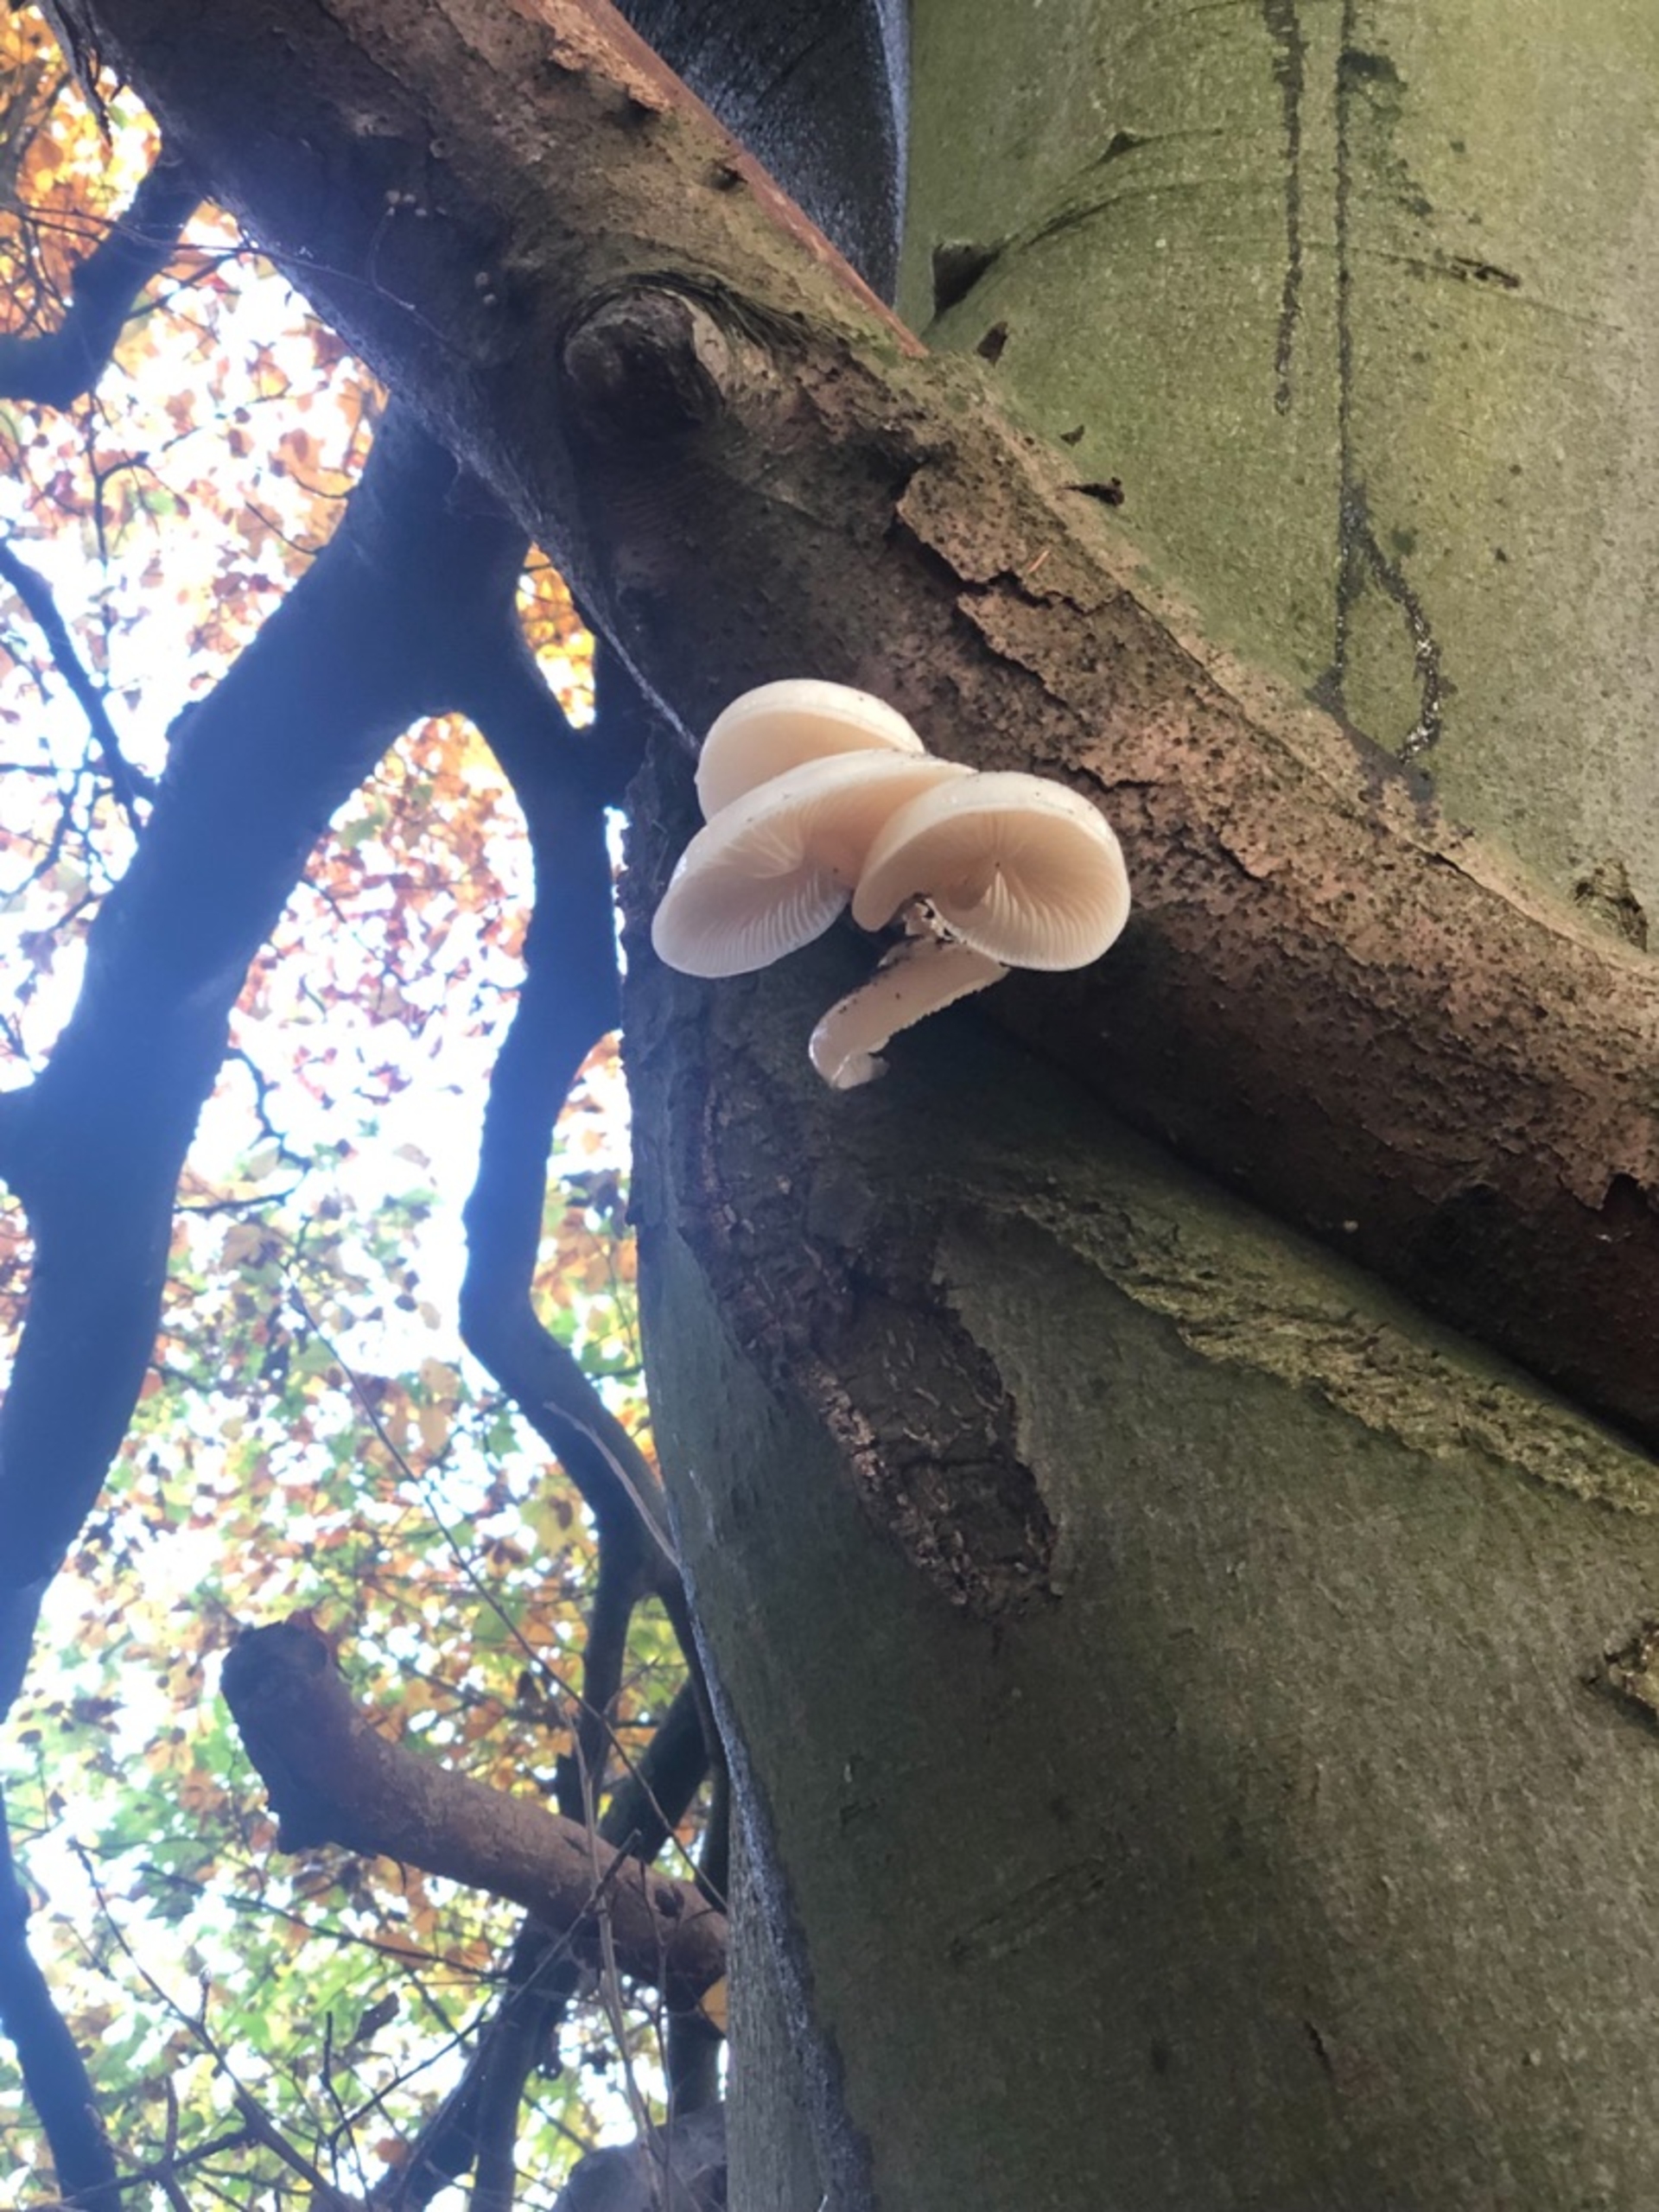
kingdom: Fungi
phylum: Basidiomycota
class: Agaricomycetes
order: Agaricales
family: Physalacriaceae
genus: Mucidula
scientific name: Mucidula mucida
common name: Porcelænshat
